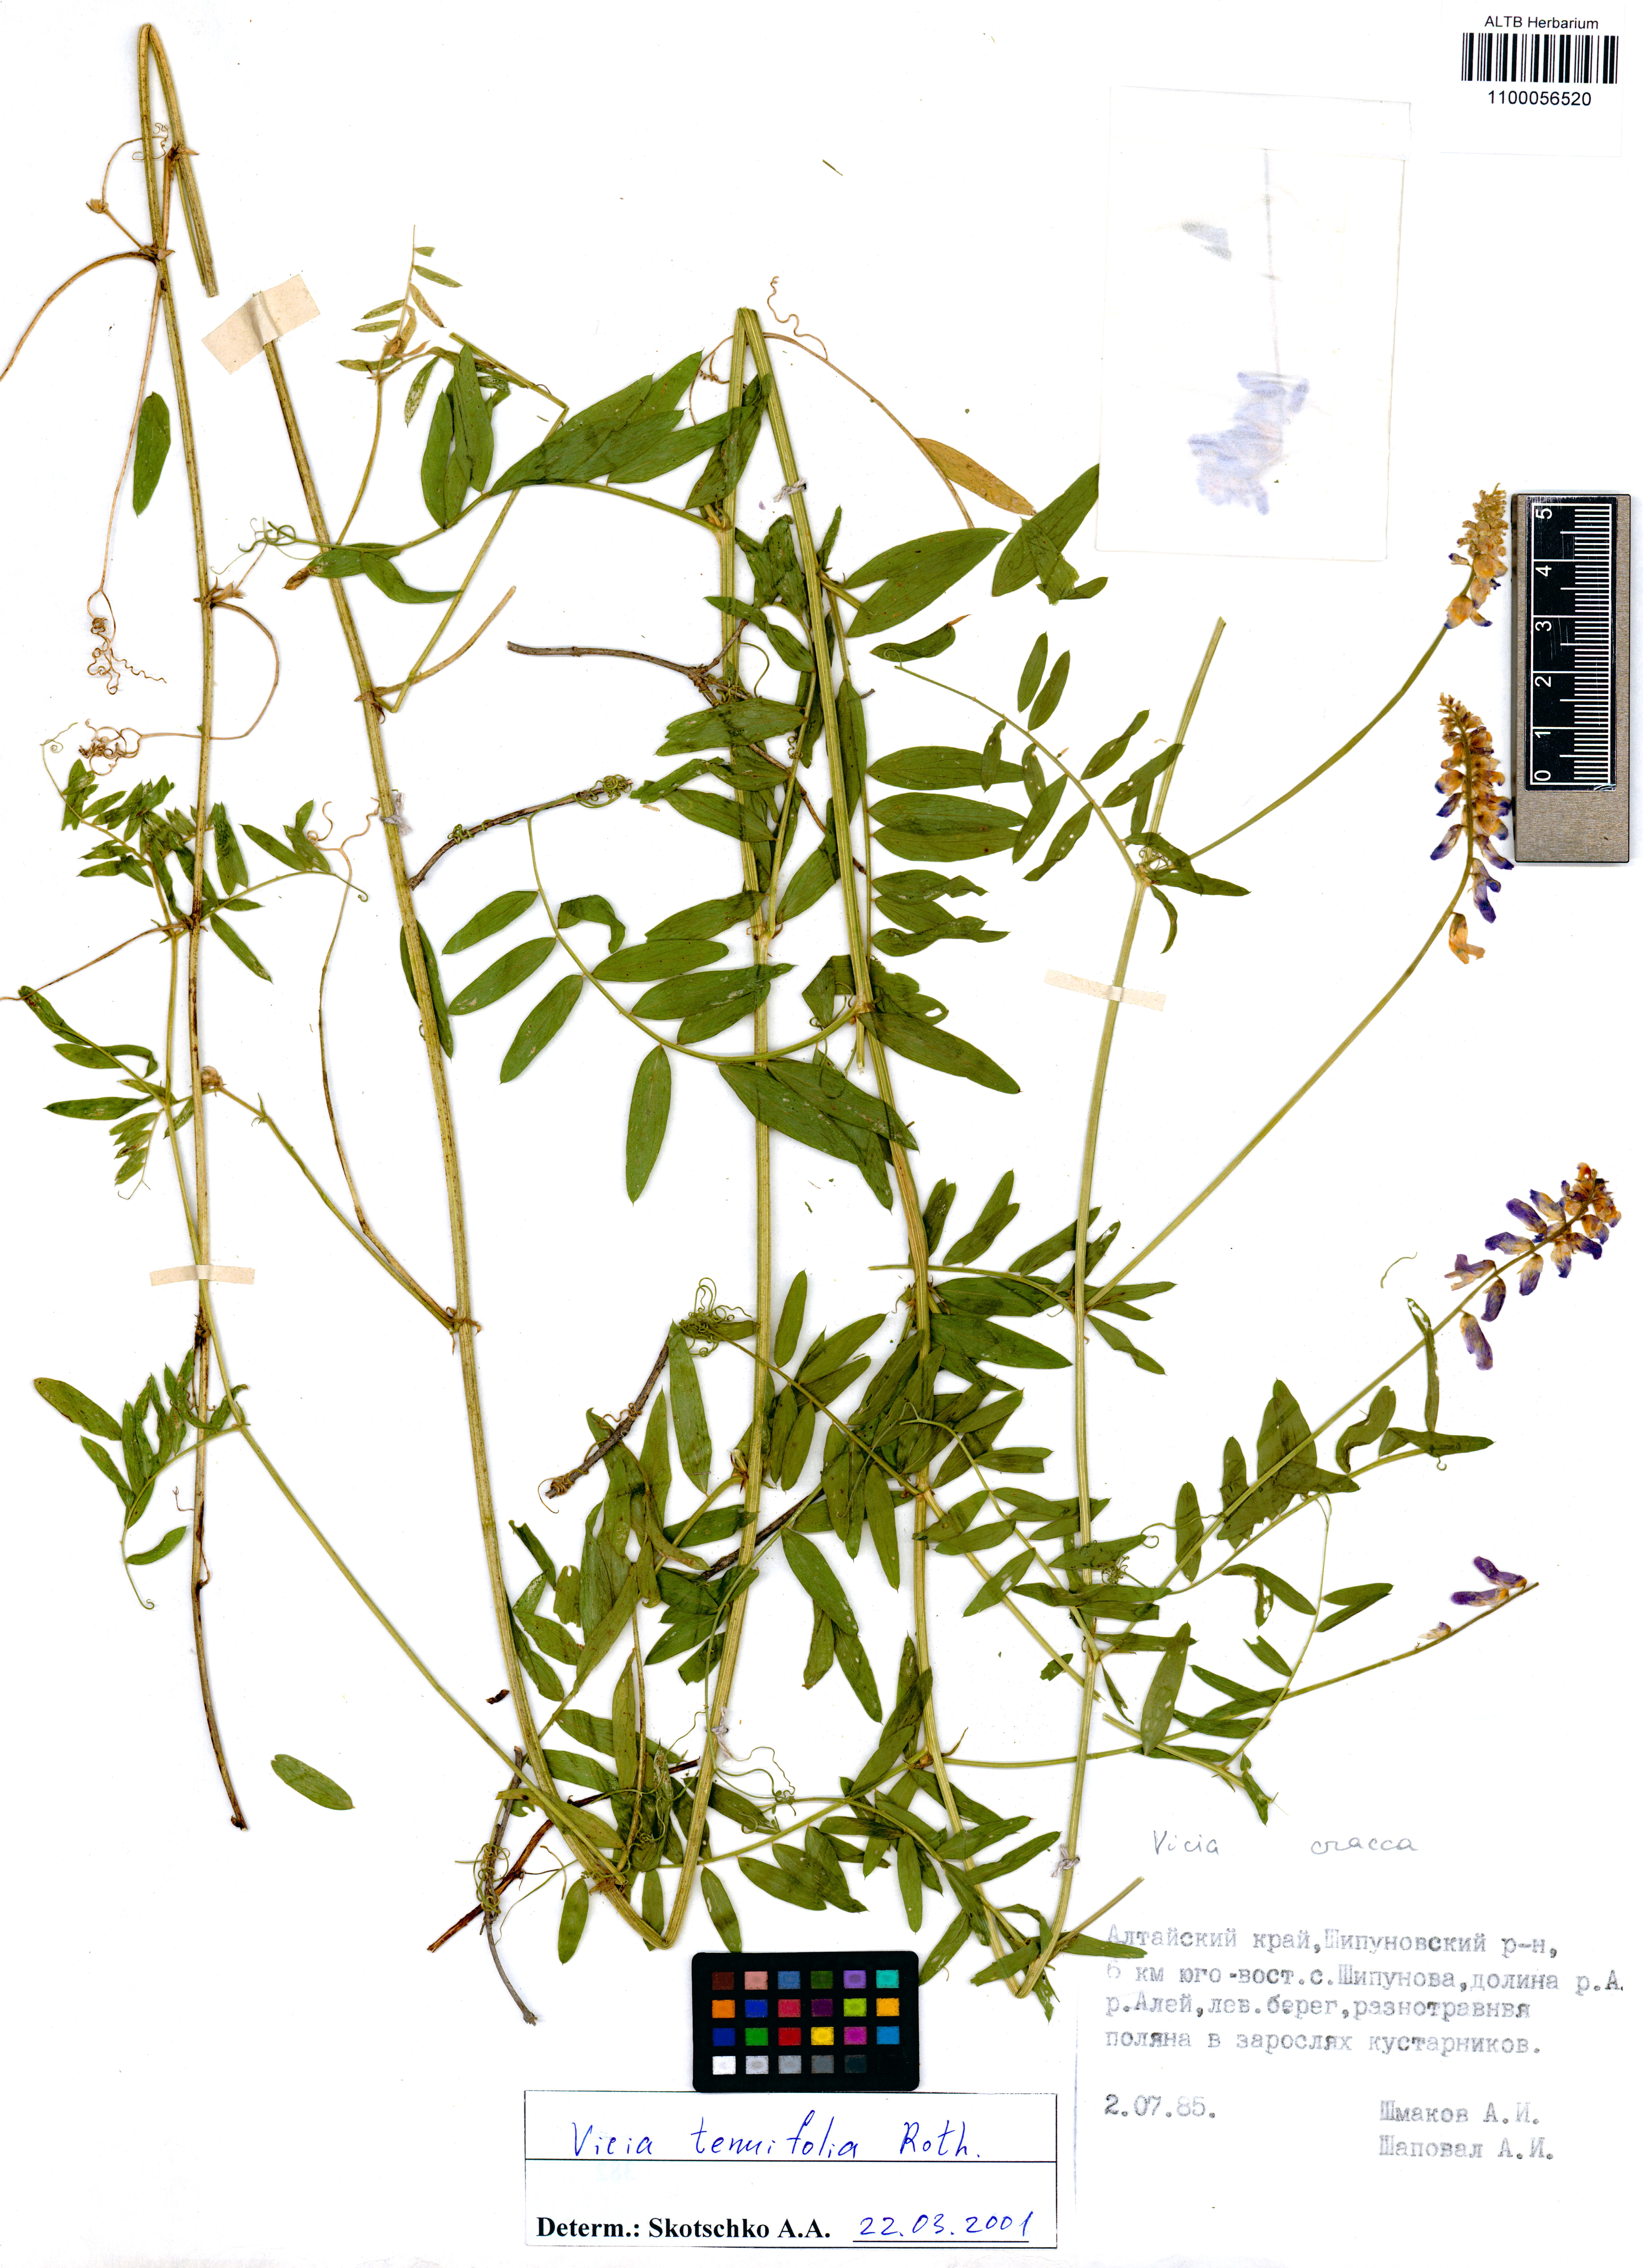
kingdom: Plantae
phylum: Tracheophyta
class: Magnoliopsida
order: Fabales
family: Fabaceae
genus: Vicia
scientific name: Vicia tenuifolia
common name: Fine-leaved vetch
